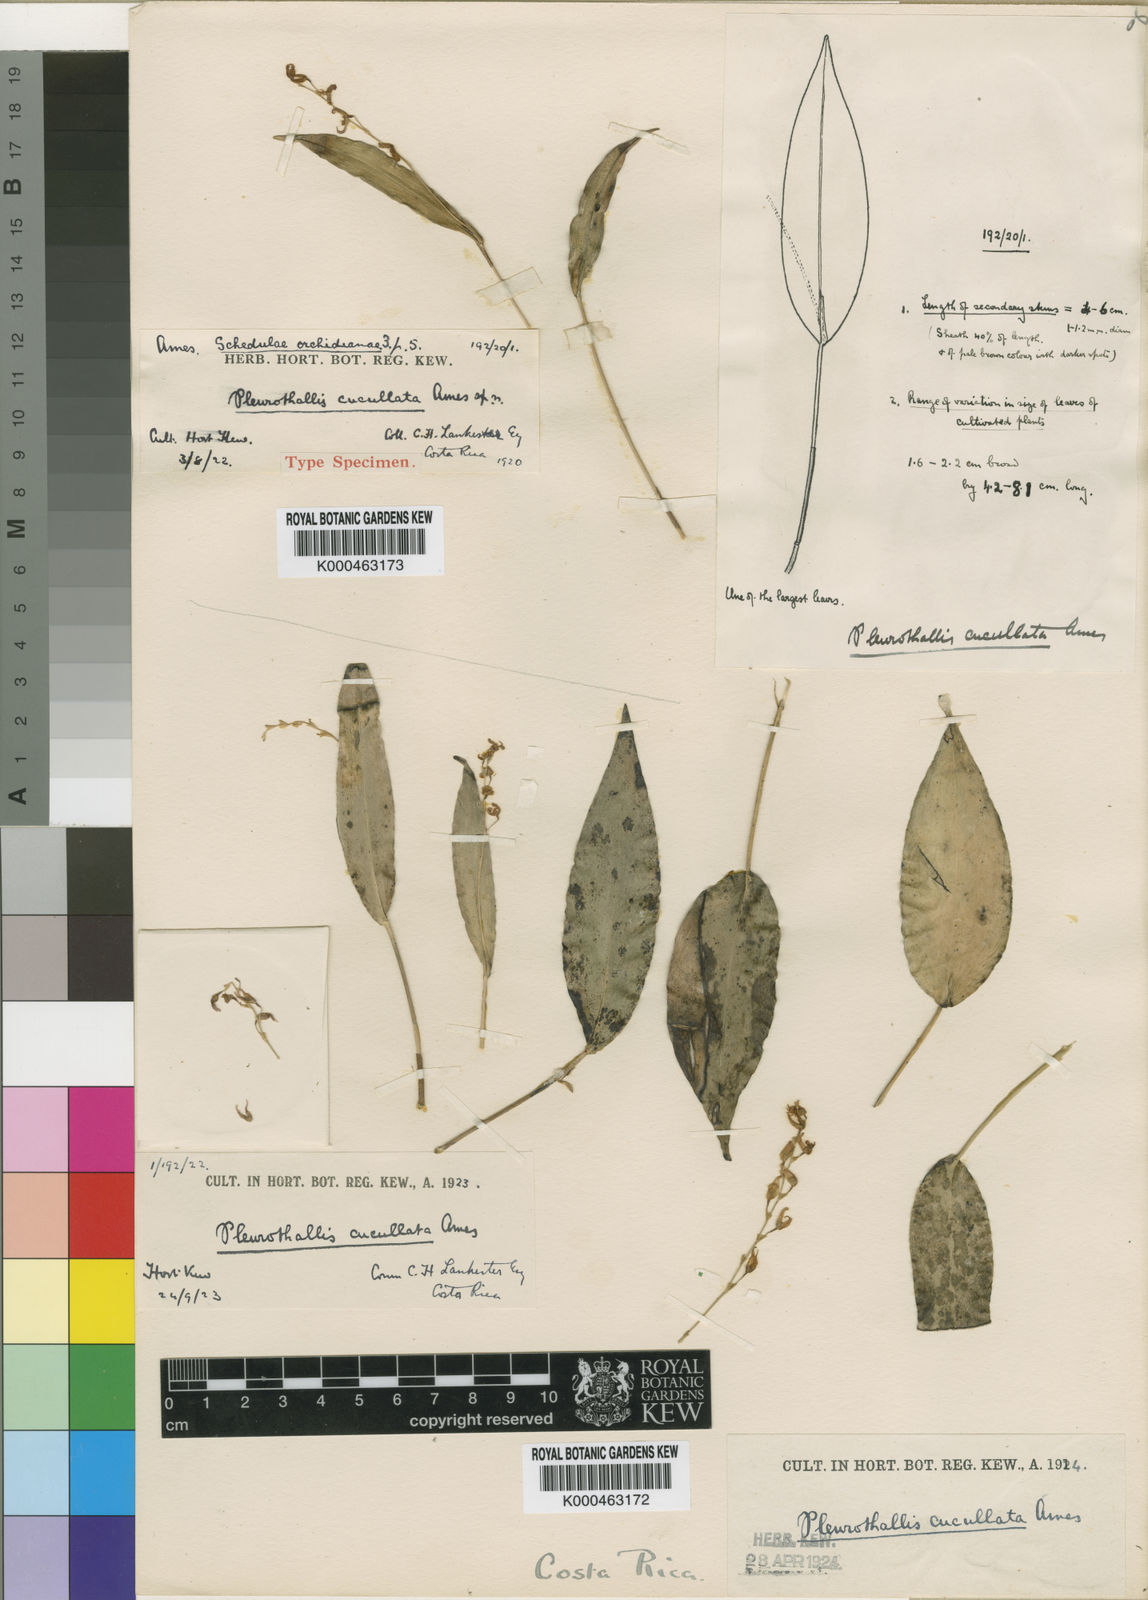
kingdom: Plantae
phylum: Tracheophyta
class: Liliopsida
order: Asparagales
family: Orchidaceae
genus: Pleurothallis
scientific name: Pleurothallis rowleei
